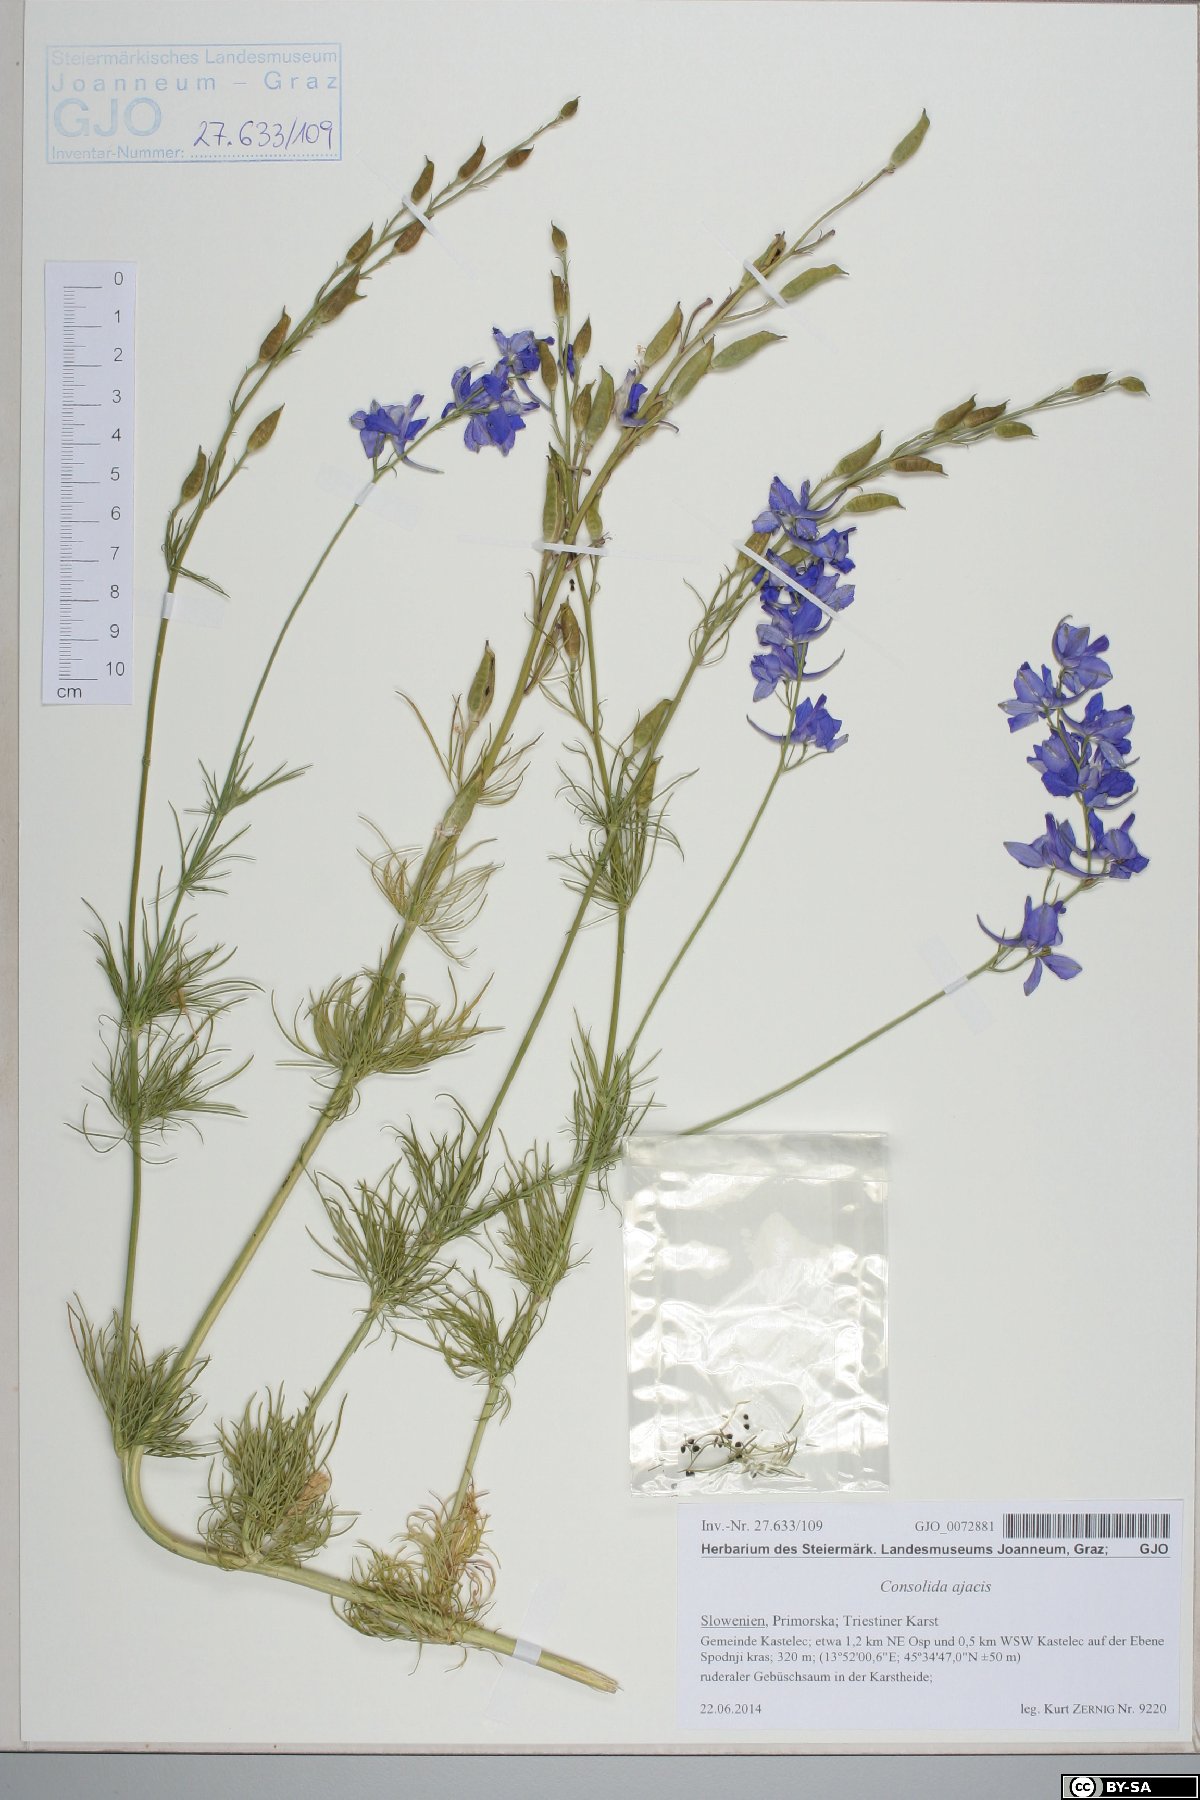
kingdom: Plantae
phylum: Tracheophyta
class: Magnoliopsida
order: Ranunculales
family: Ranunculaceae
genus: Delphinium
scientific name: Delphinium ajacis
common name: Doubtful knight's-spur
